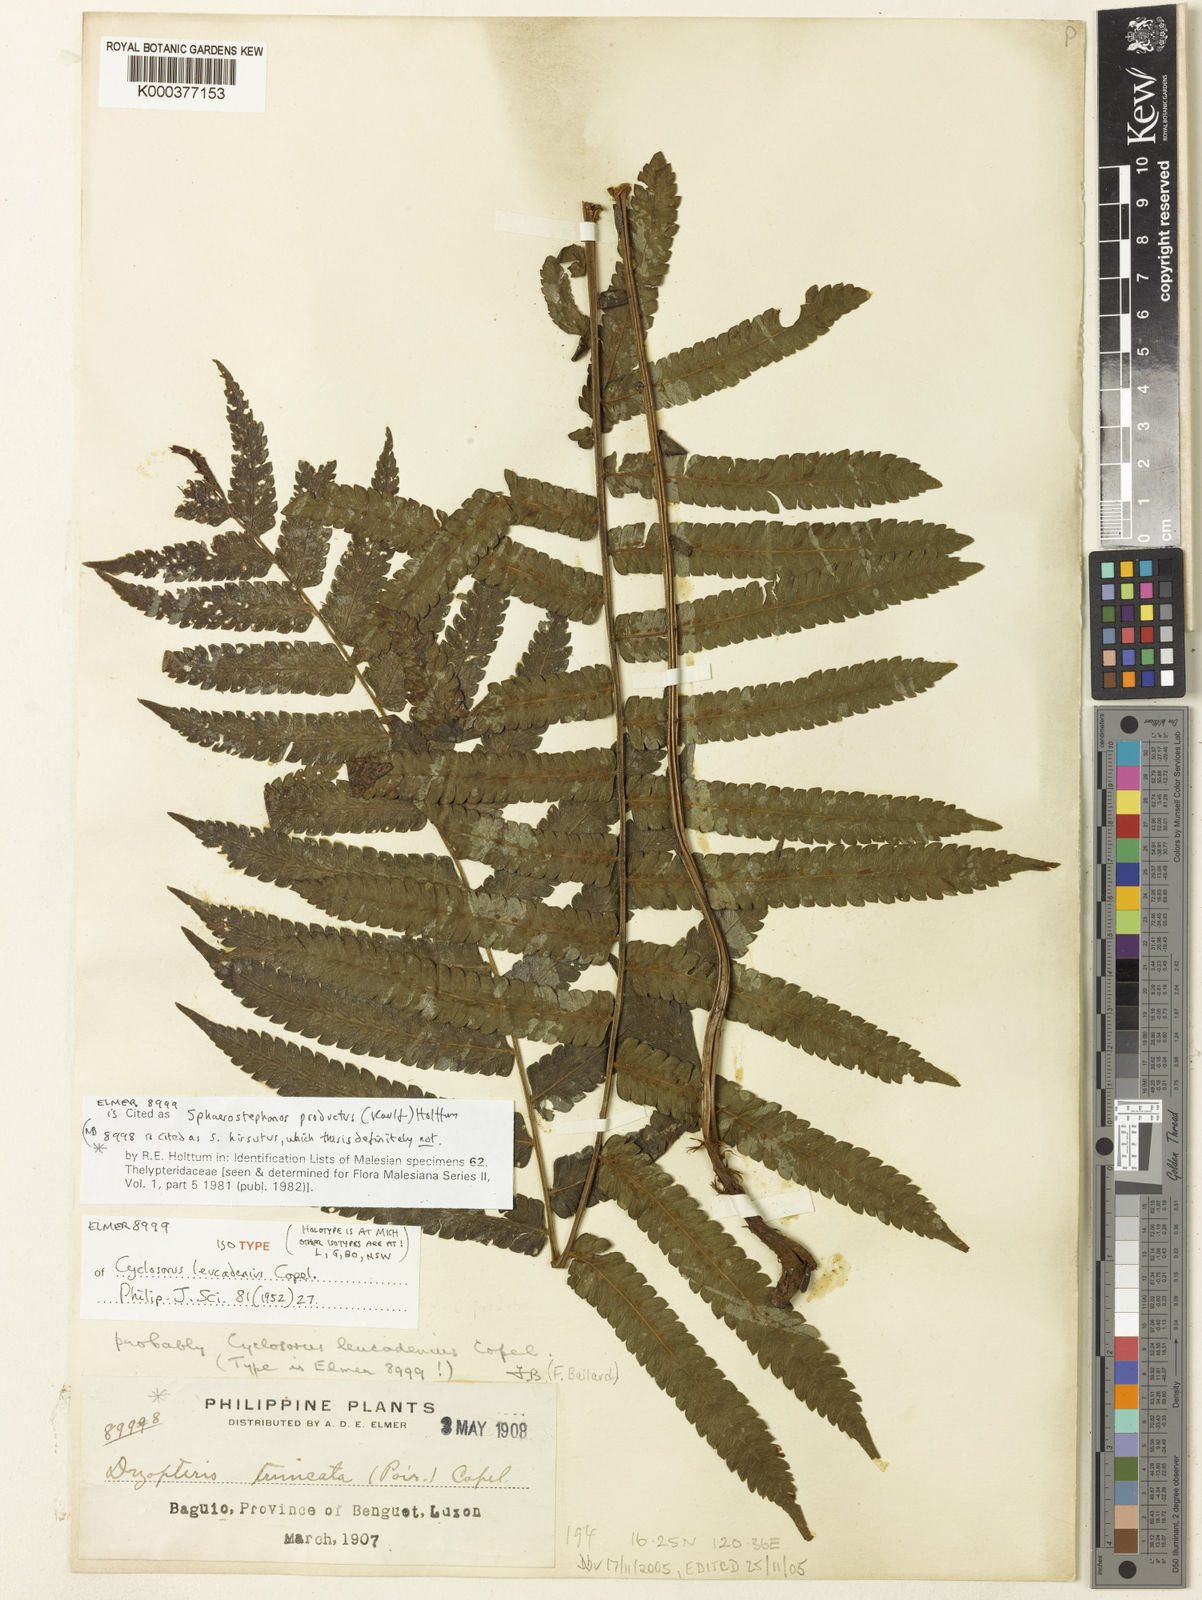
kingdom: Plantae
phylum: Tracheophyta
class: Polypodiopsida
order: Polypodiales
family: Thelypteridaceae
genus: Sphaerostephanos
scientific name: Sphaerostephanos productus
